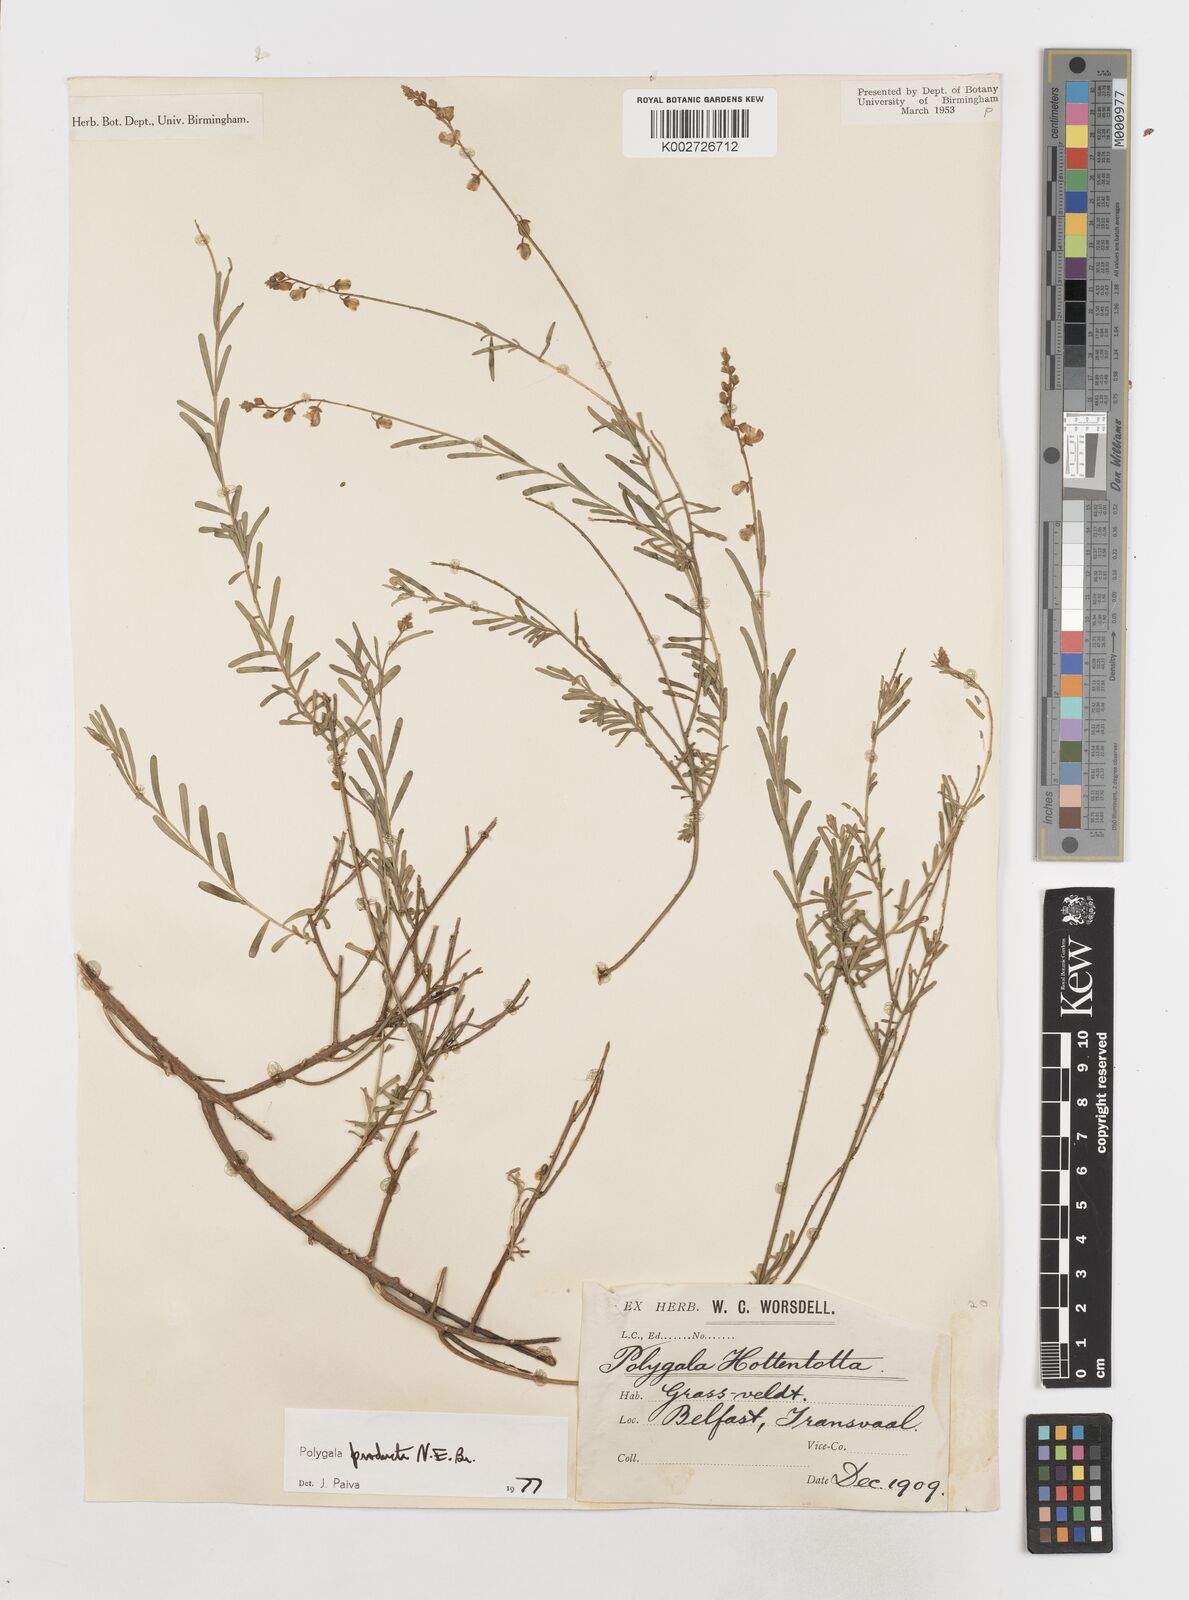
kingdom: Plantae
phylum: Tracheophyta
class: Magnoliopsida
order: Fabales
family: Polygalaceae
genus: Polygala
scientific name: Polygala producta
